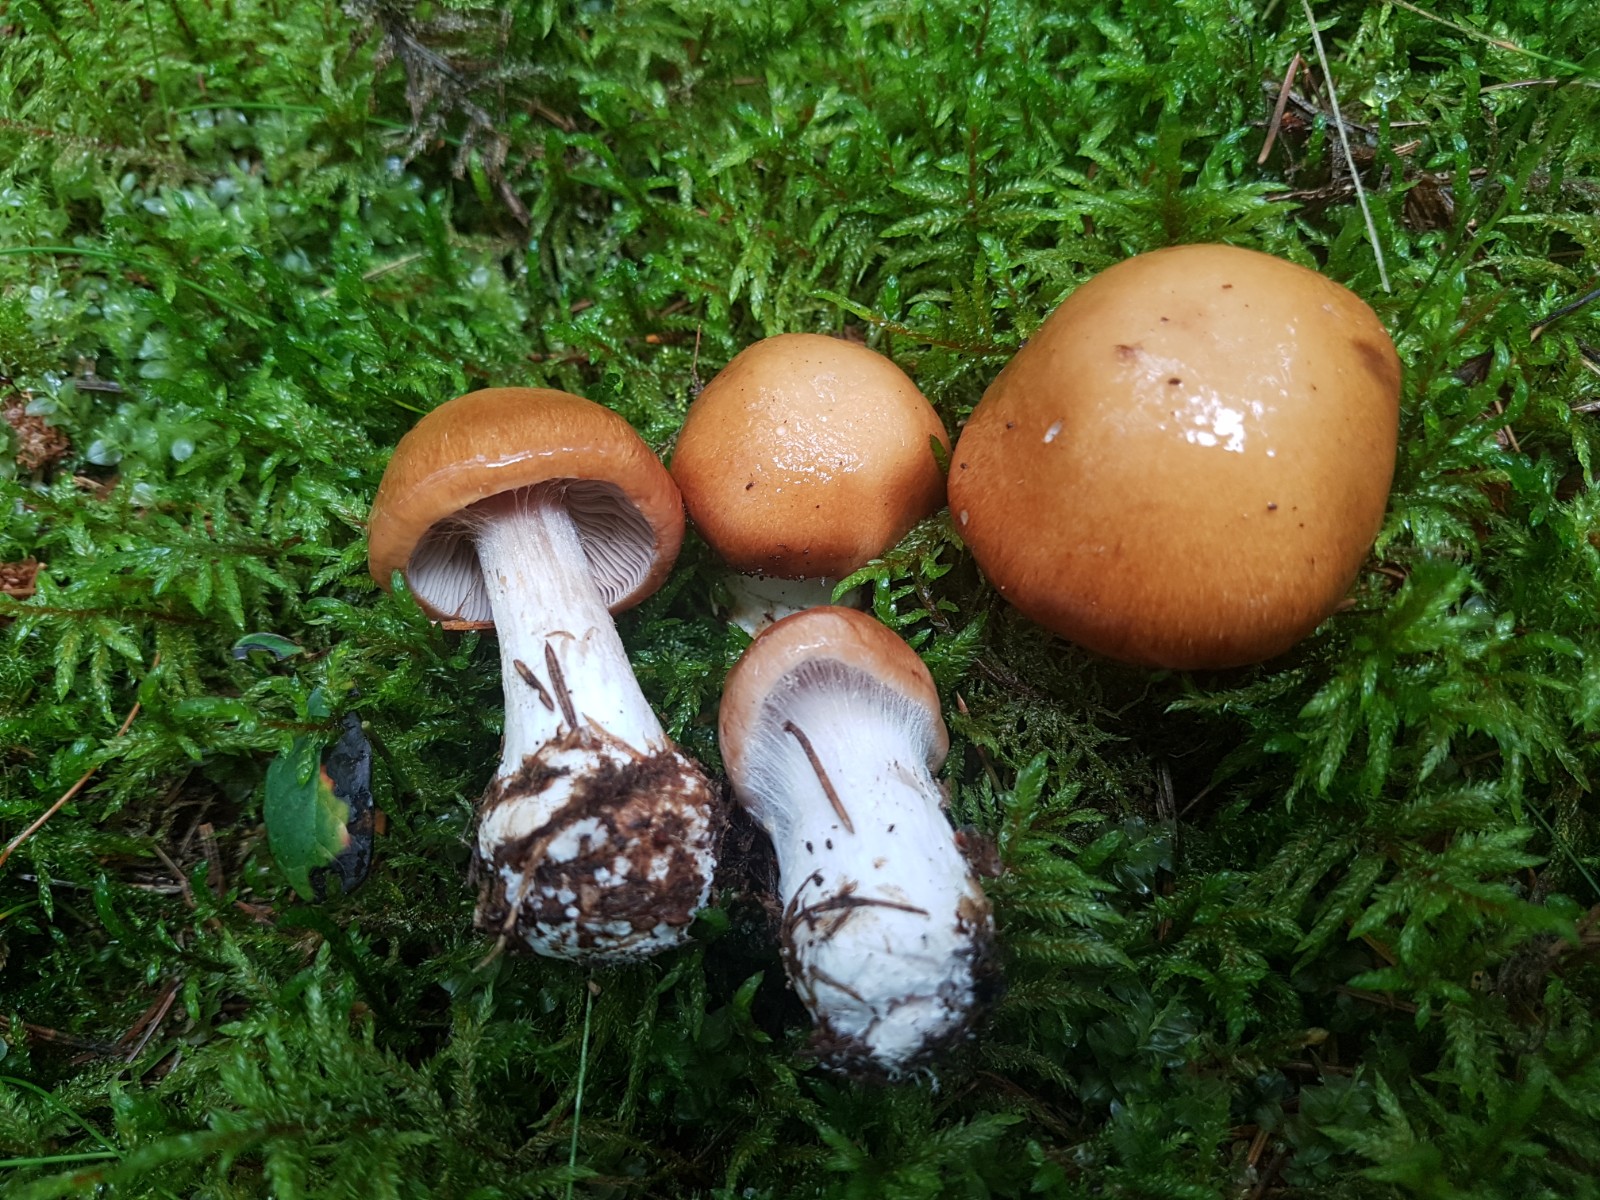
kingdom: Fungi
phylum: Basidiomycota
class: Agaricomycetes
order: Agaricales
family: Cortinariaceae
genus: Thaxterogaster
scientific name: Thaxterogaster multiformis
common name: honning-slørhat
